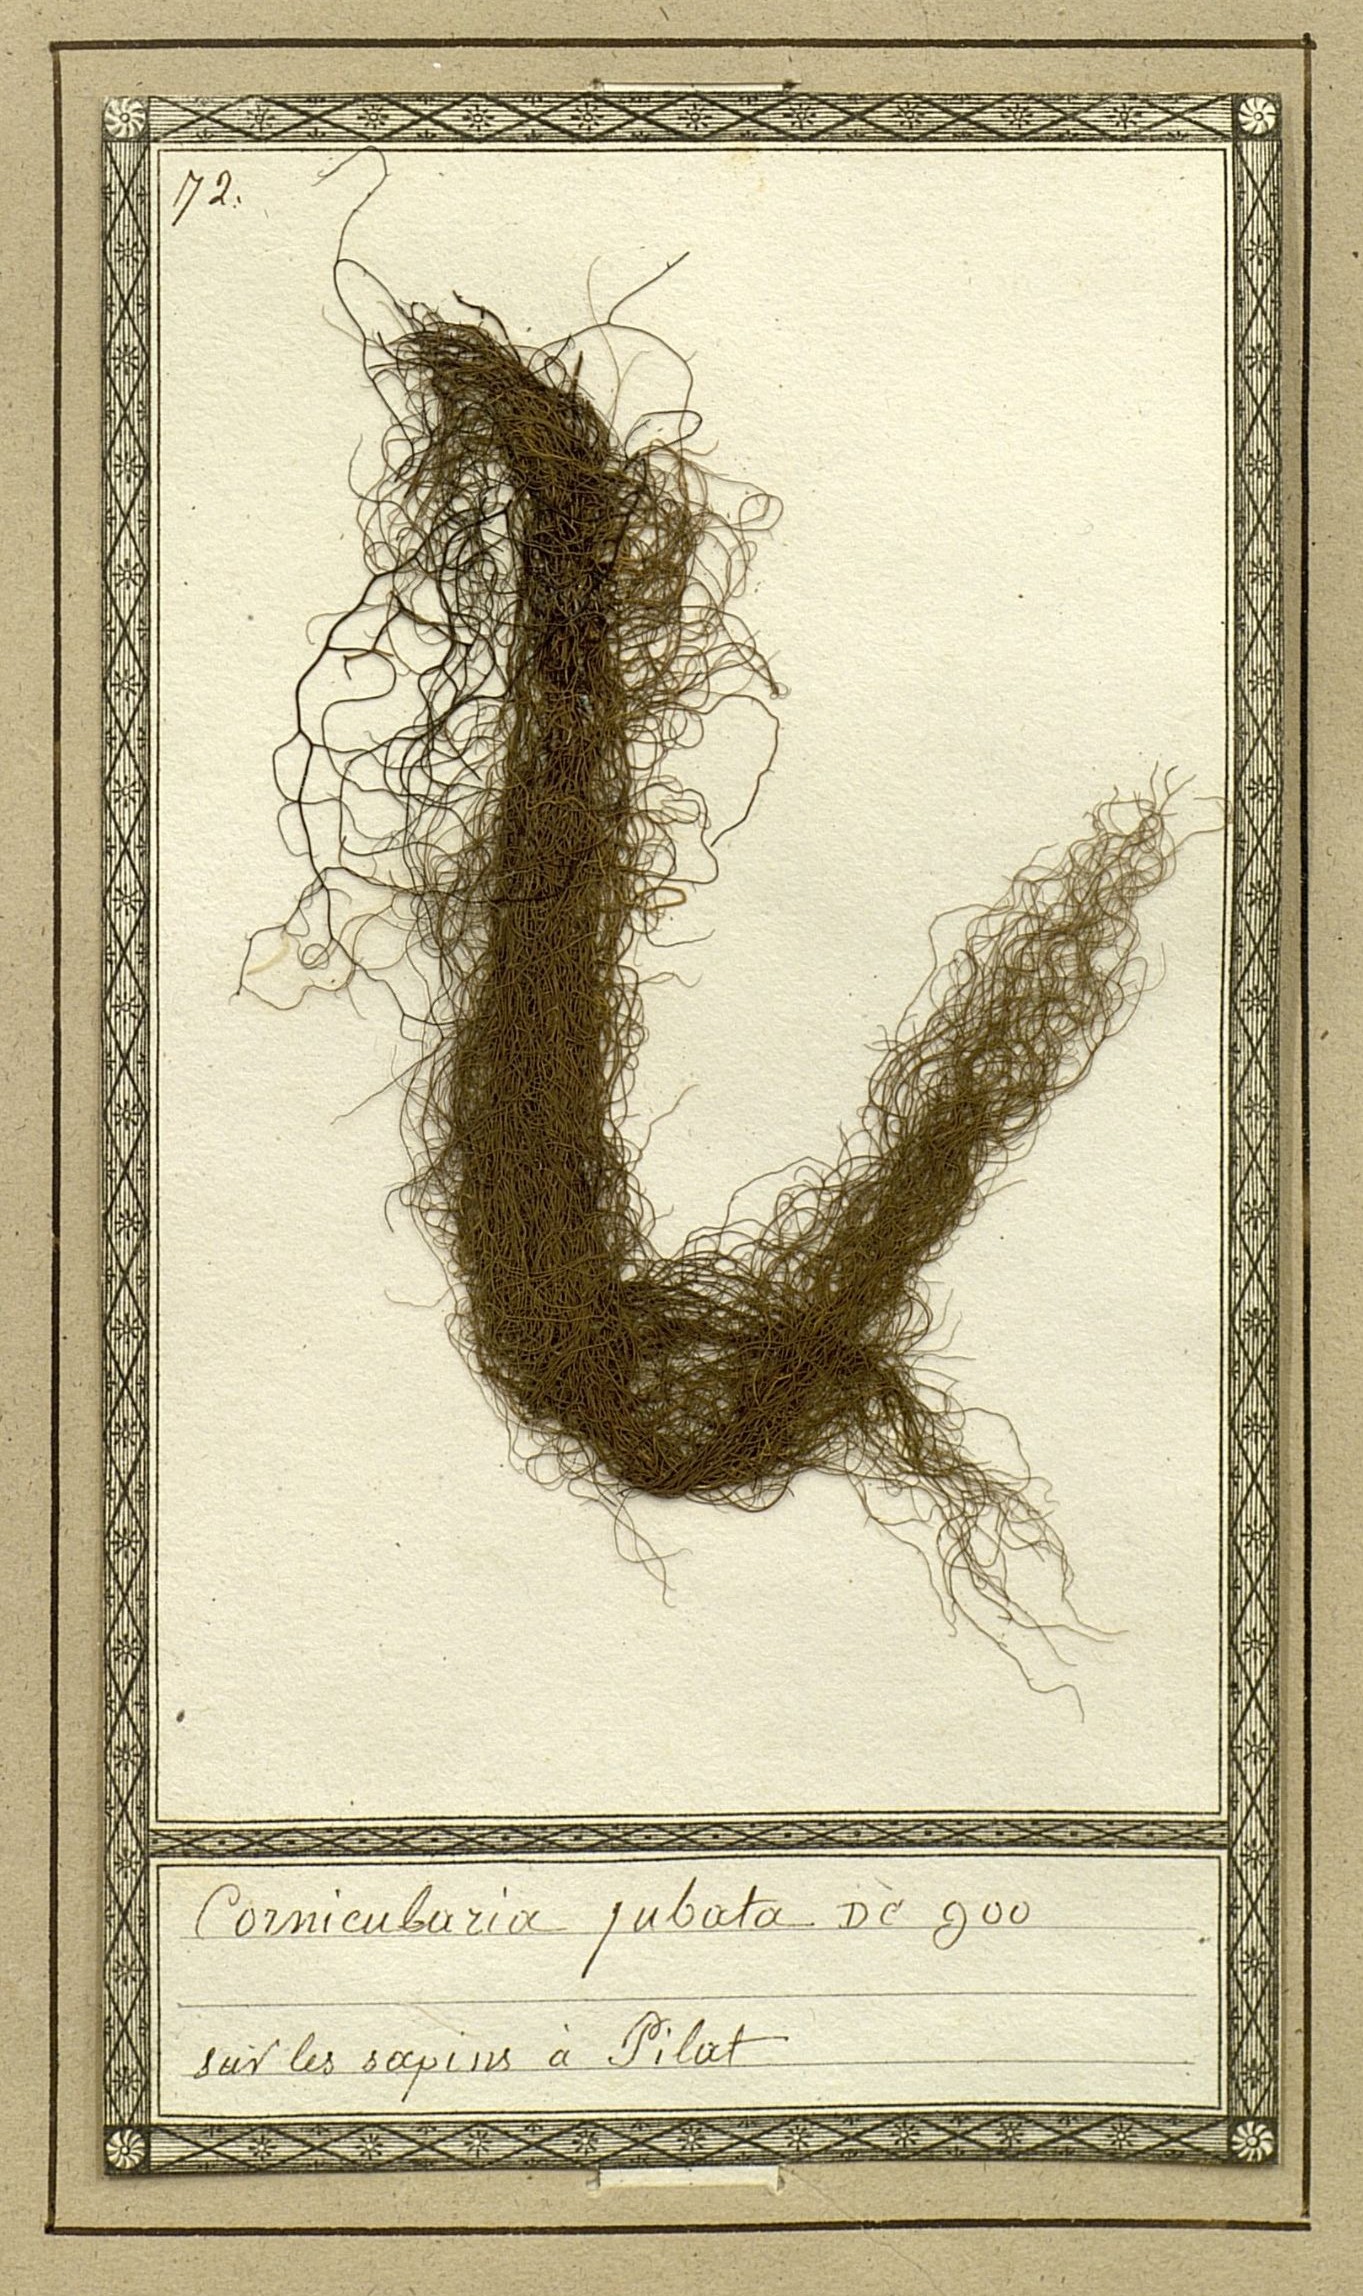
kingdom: Fungi
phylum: Ascomycota
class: Lecanoromycetes
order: Lecanorales
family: Parmeliaceae
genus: Bryoria
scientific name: Bryoria fremontii
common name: Black moss
